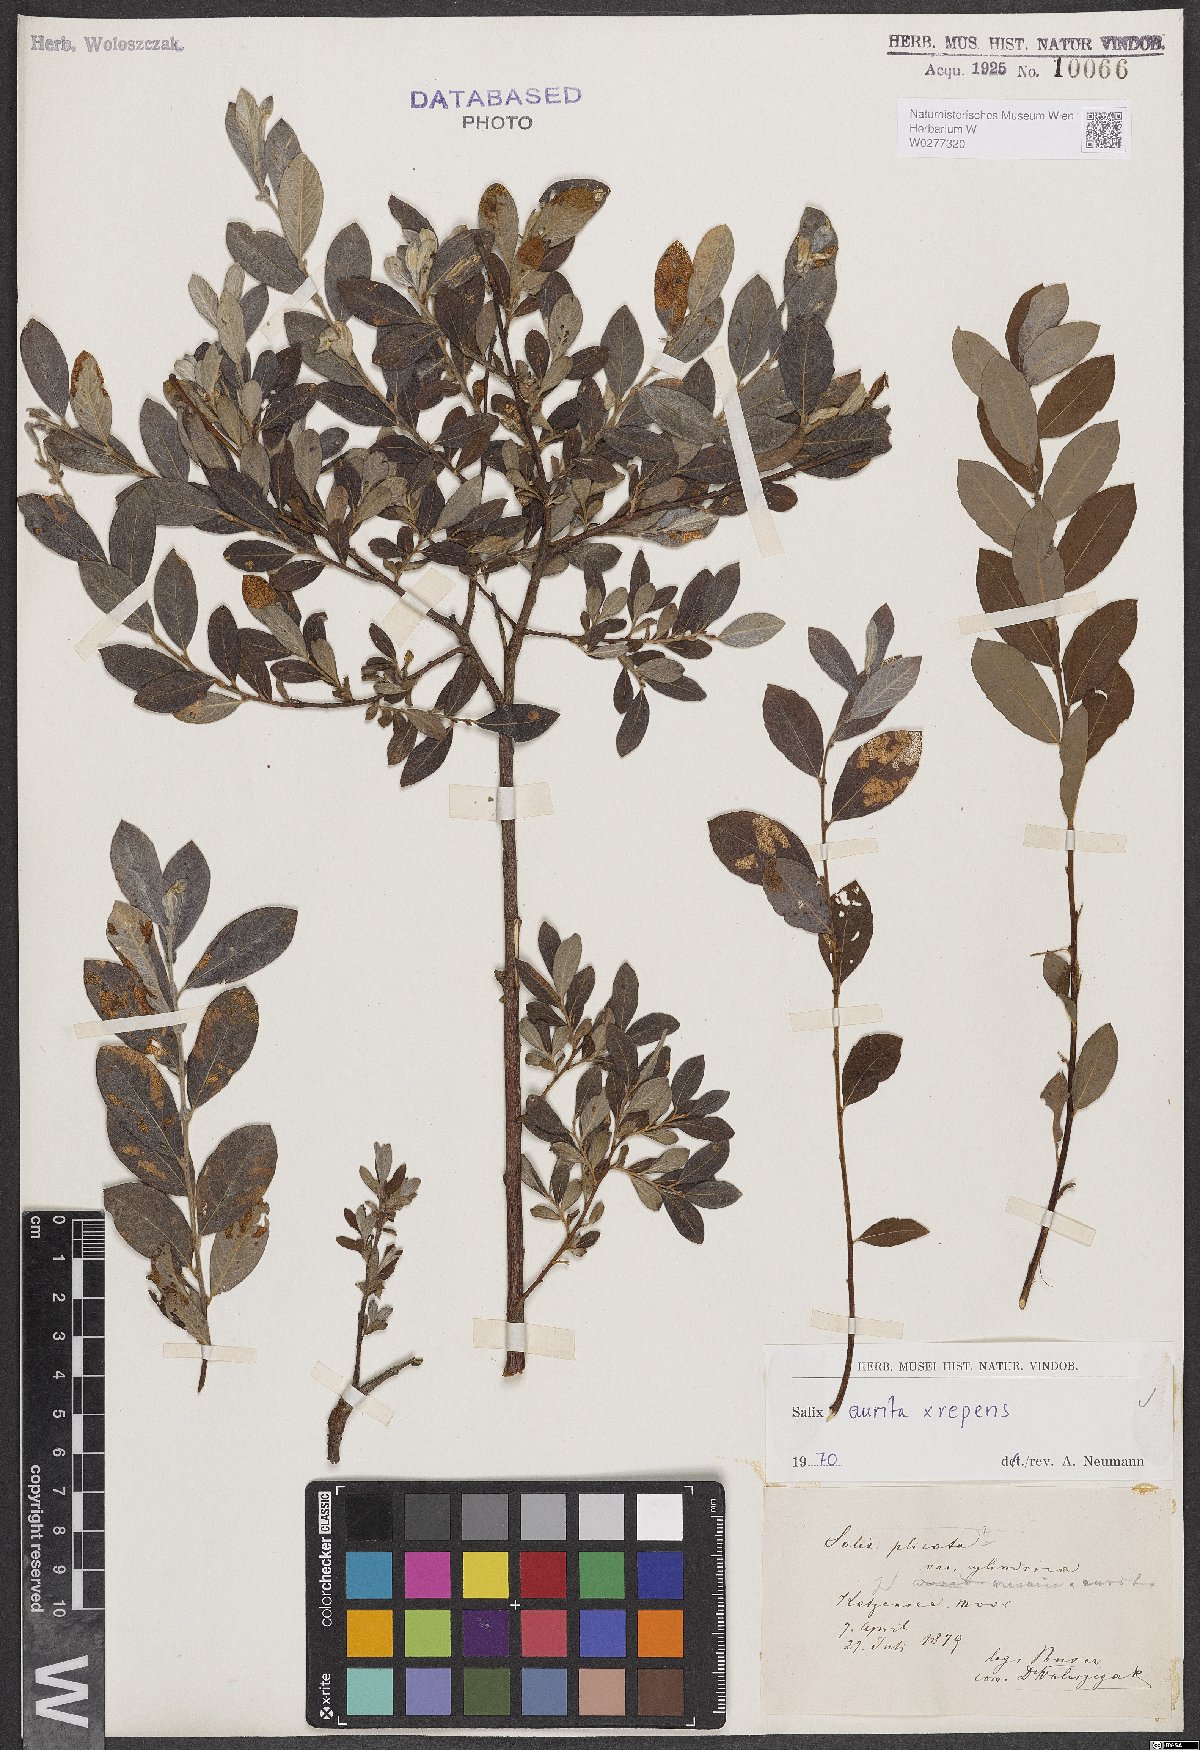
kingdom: Plantae
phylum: Tracheophyta
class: Magnoliopsida
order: Malpighiales
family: Salicaceae
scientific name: Salicaceae
